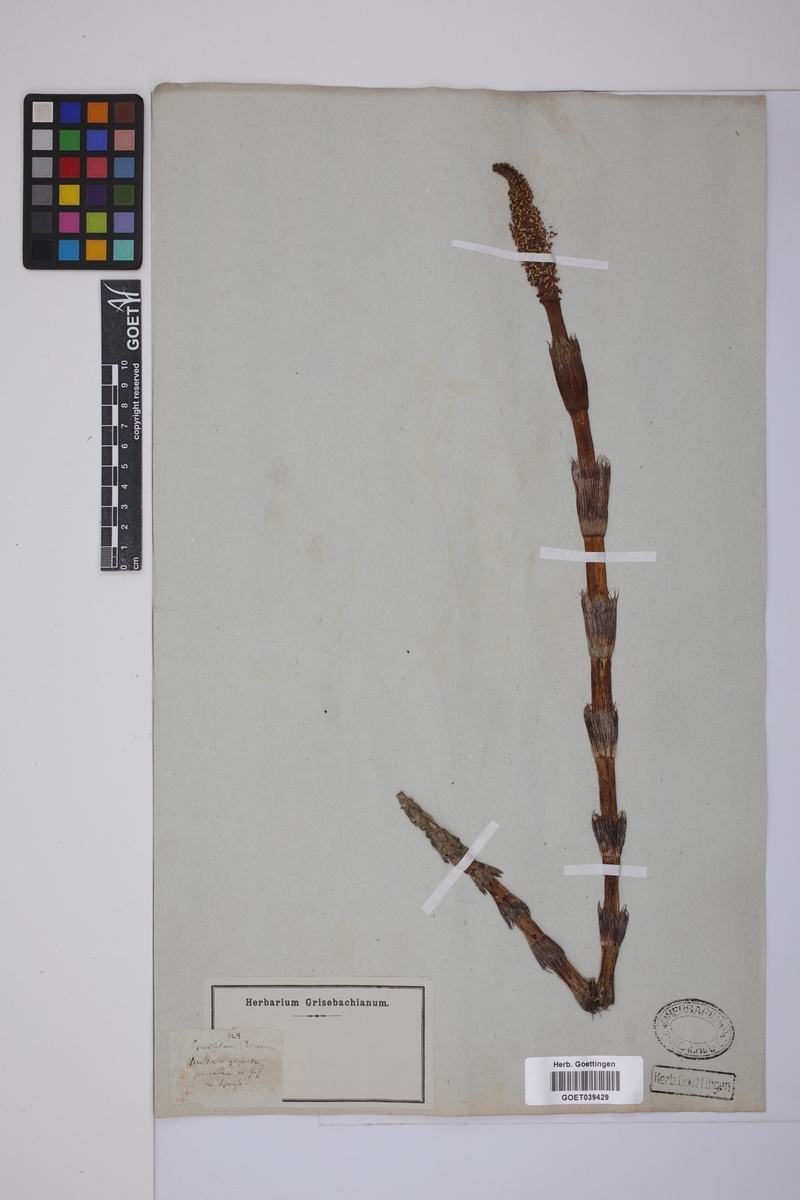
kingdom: Plantae
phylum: Tracheophyta
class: Polypodiopsida
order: Equisetales
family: Equisetaceae
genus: Equisetum
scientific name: Equisetum telmateia
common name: Great horsetail
